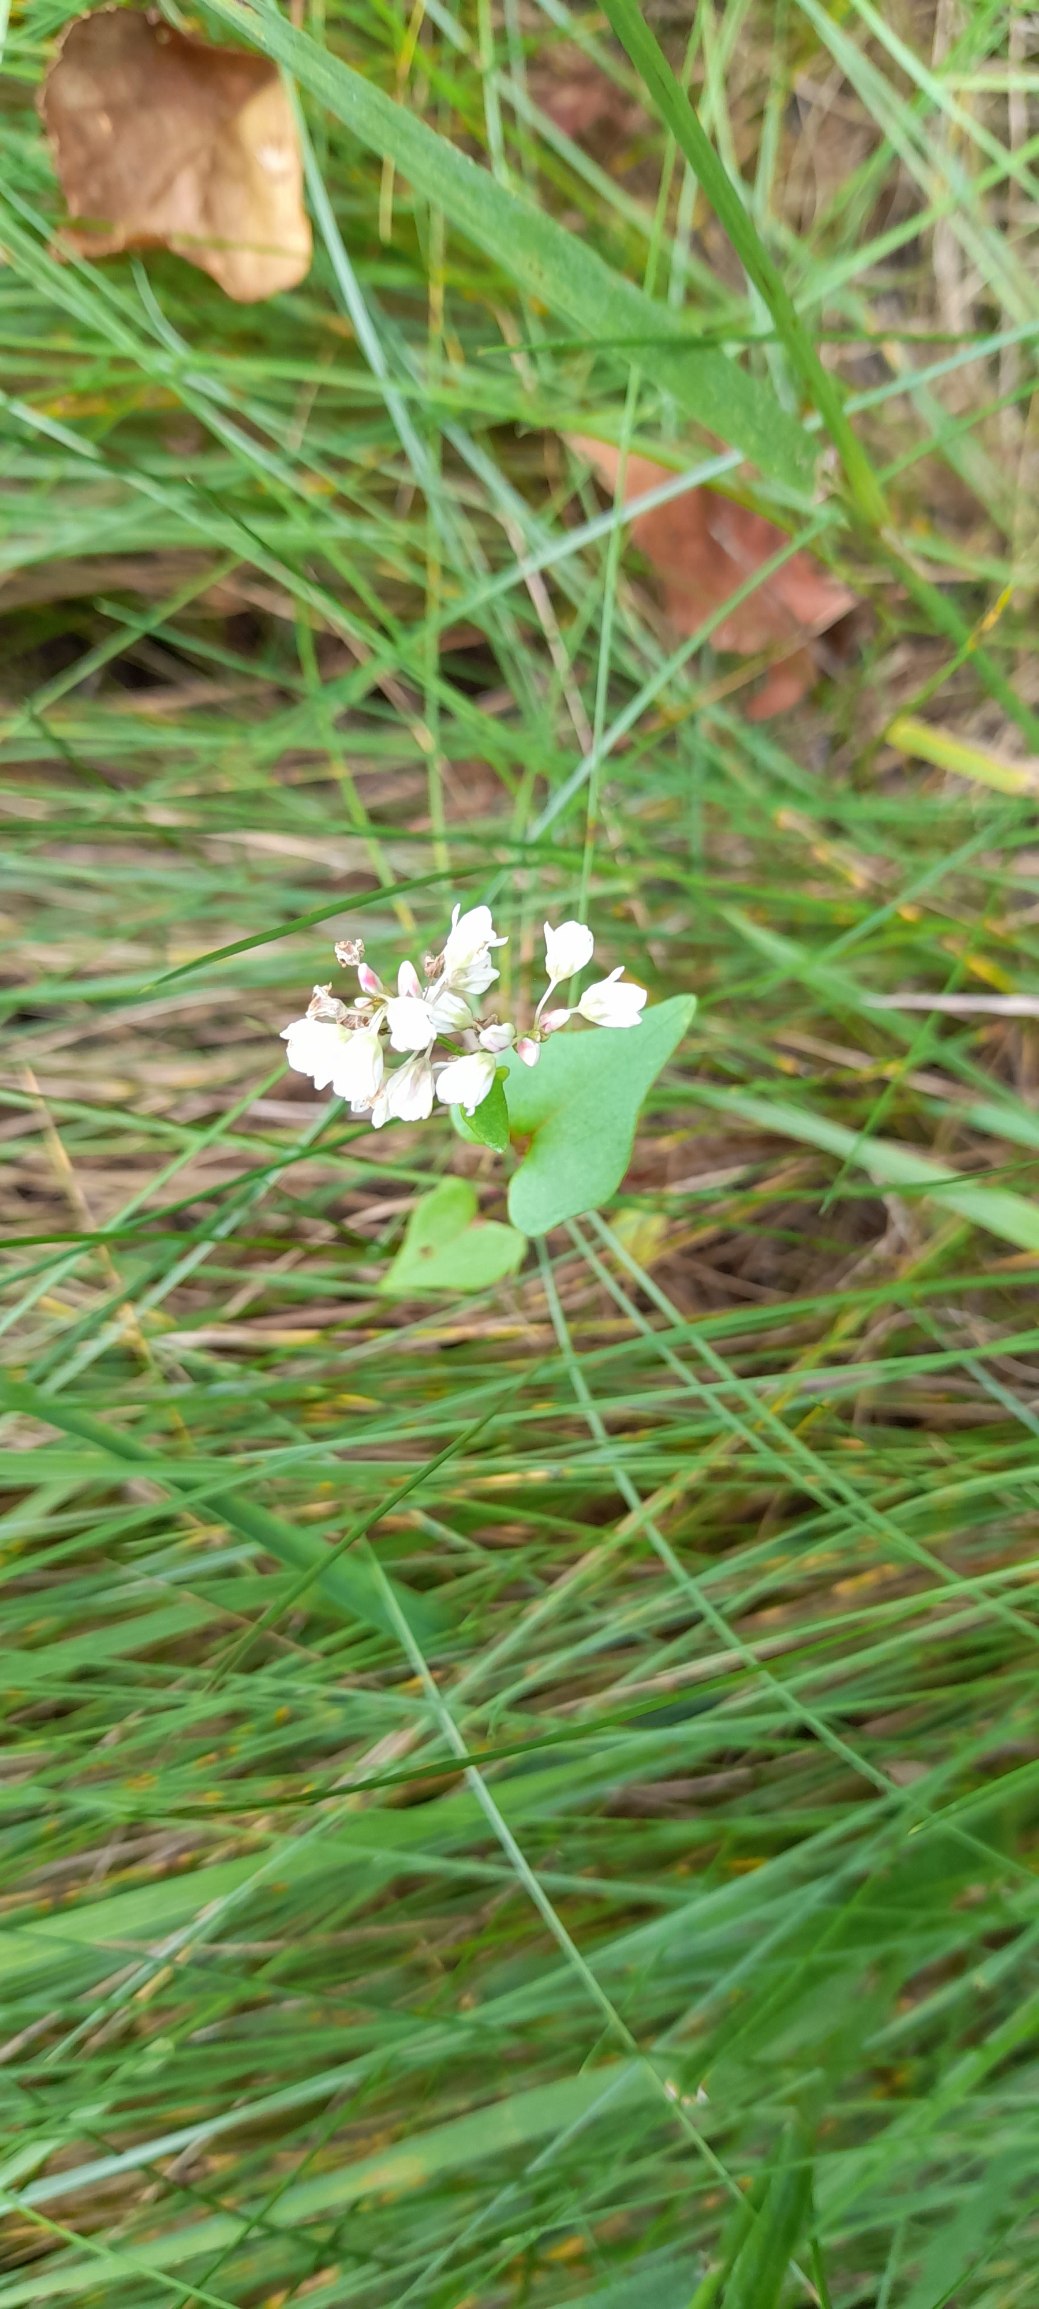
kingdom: Plantae
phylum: Tracheophyta
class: Magnoliopsida
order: Caryophyllales
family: Polygonaceae
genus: Fagopyrum
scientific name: Fagopyrum esculentum
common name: Almindelig boghvede
